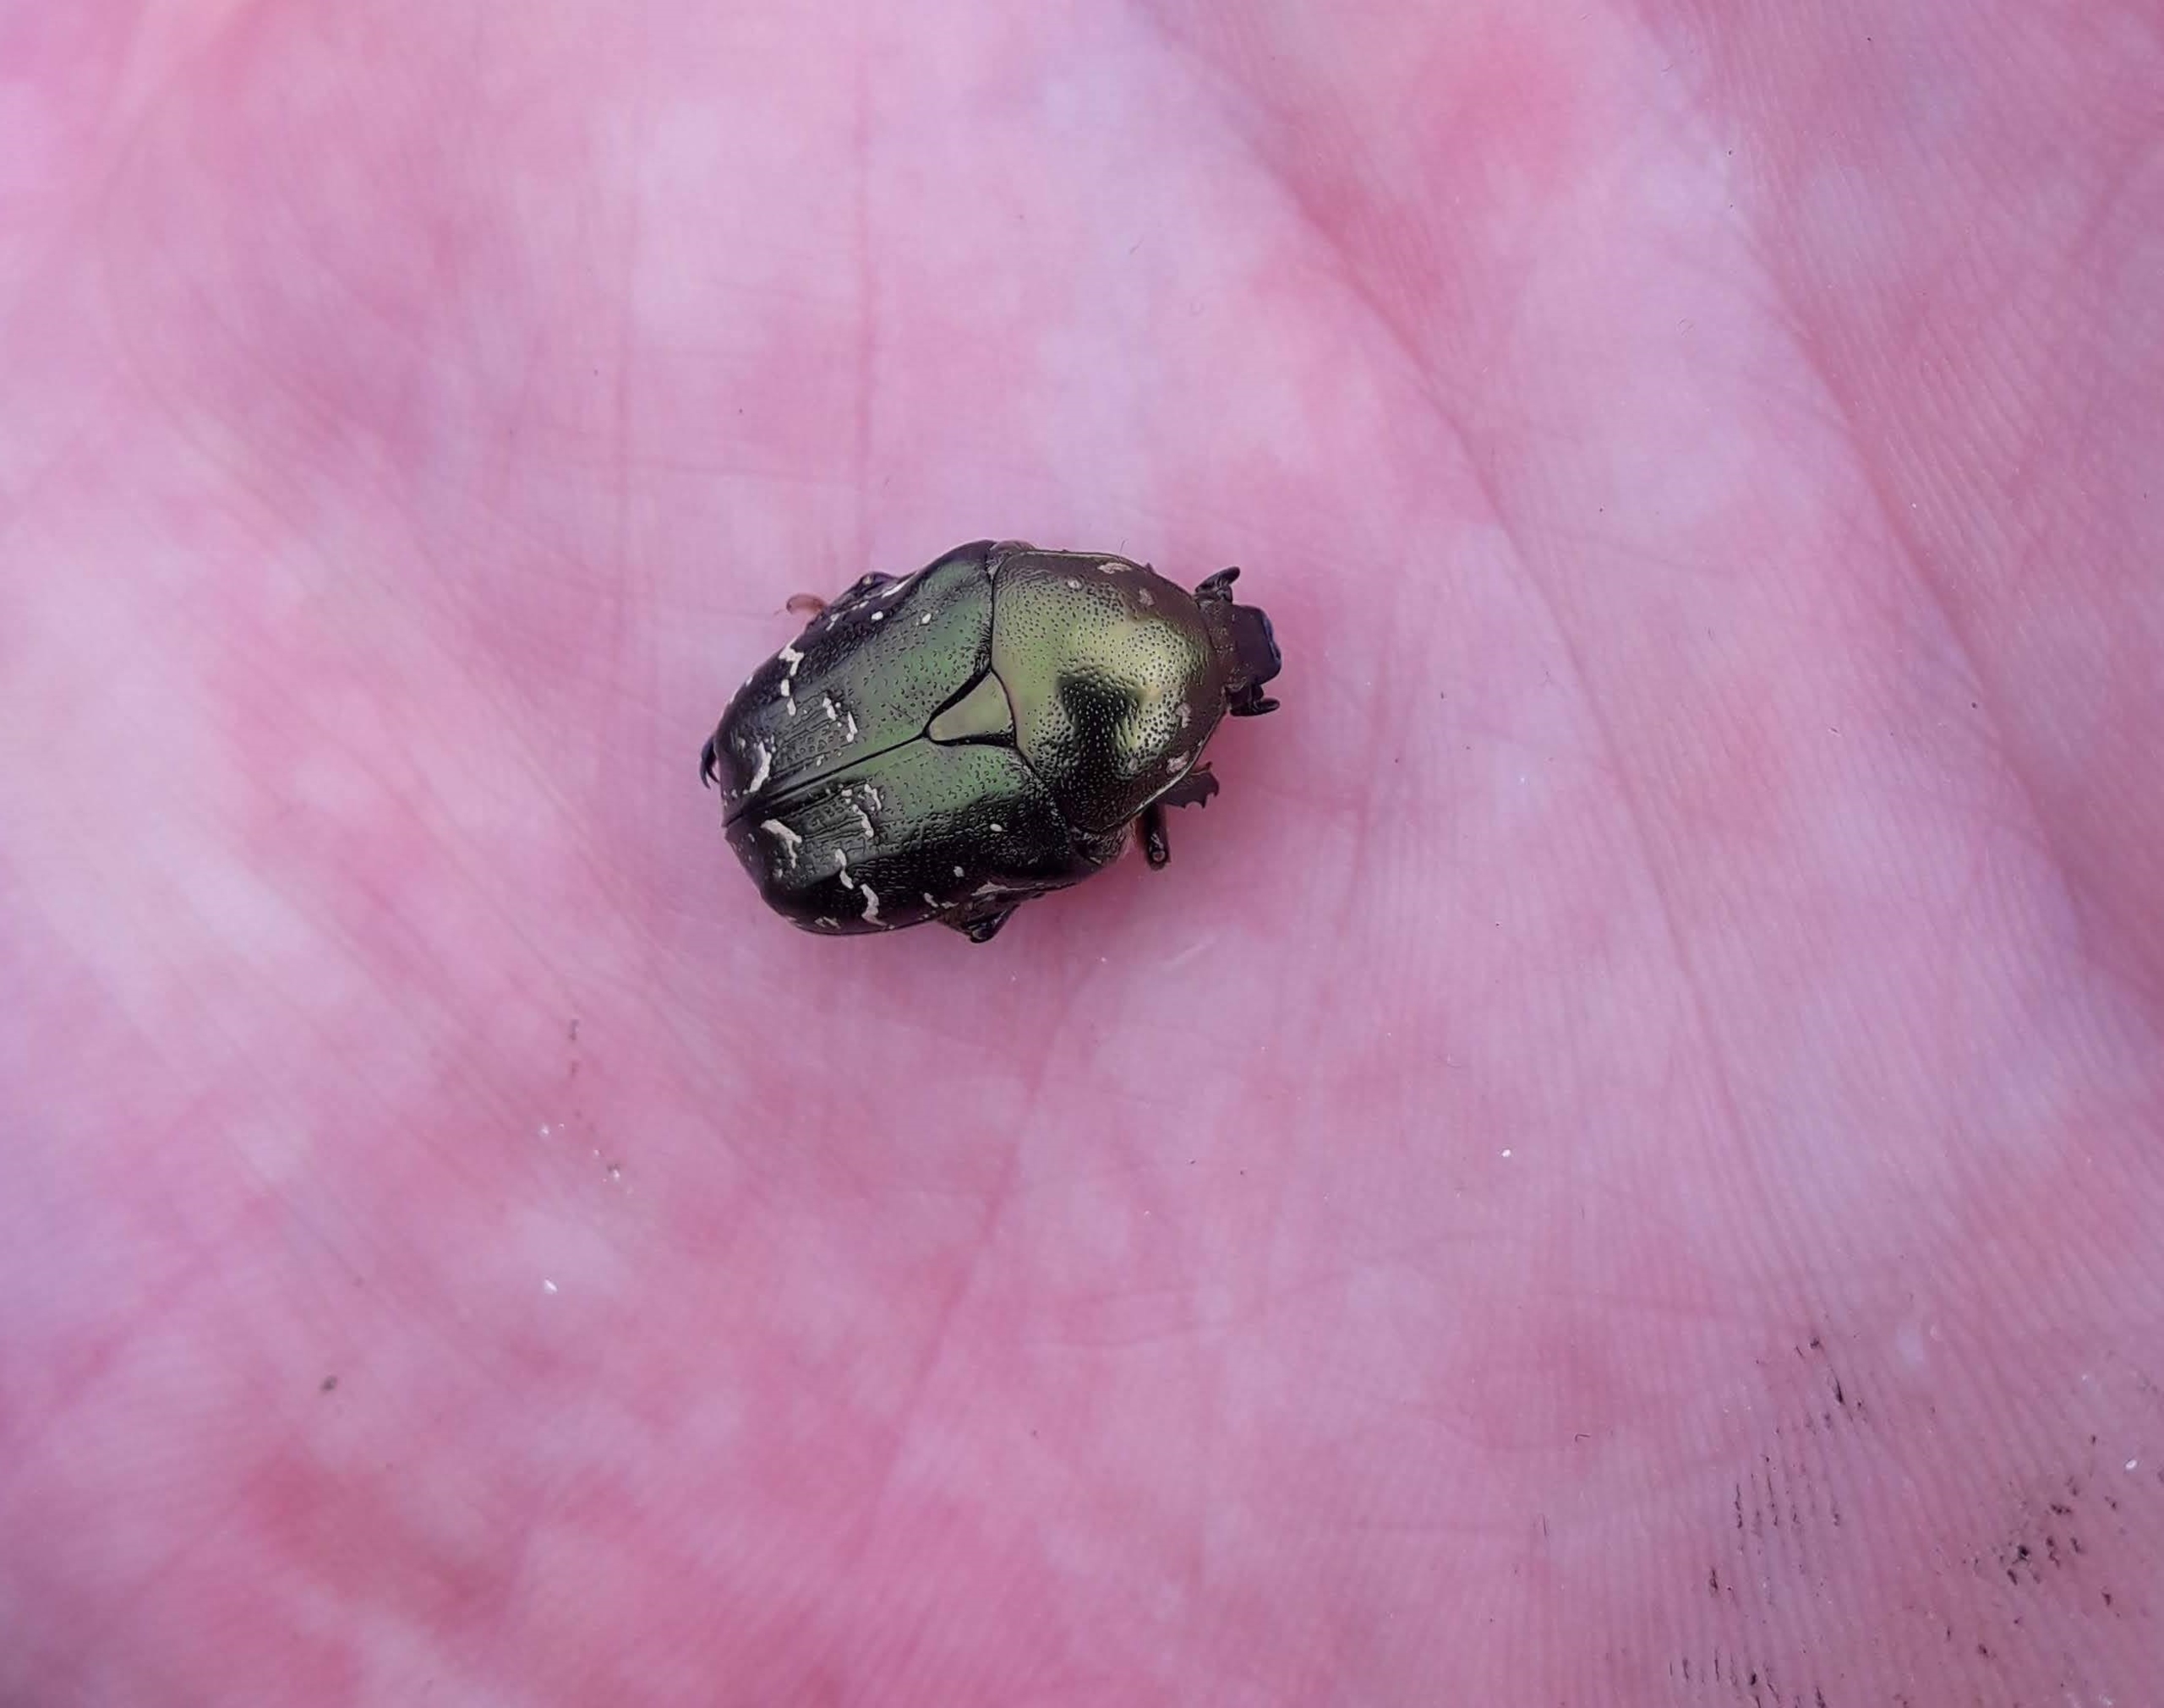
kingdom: Animalia
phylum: Arthropoda
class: Insecta
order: Coleoptera
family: Scarabaeidae
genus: Protaetia
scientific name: Protaetia cuprea
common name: Kobberguldbasse
